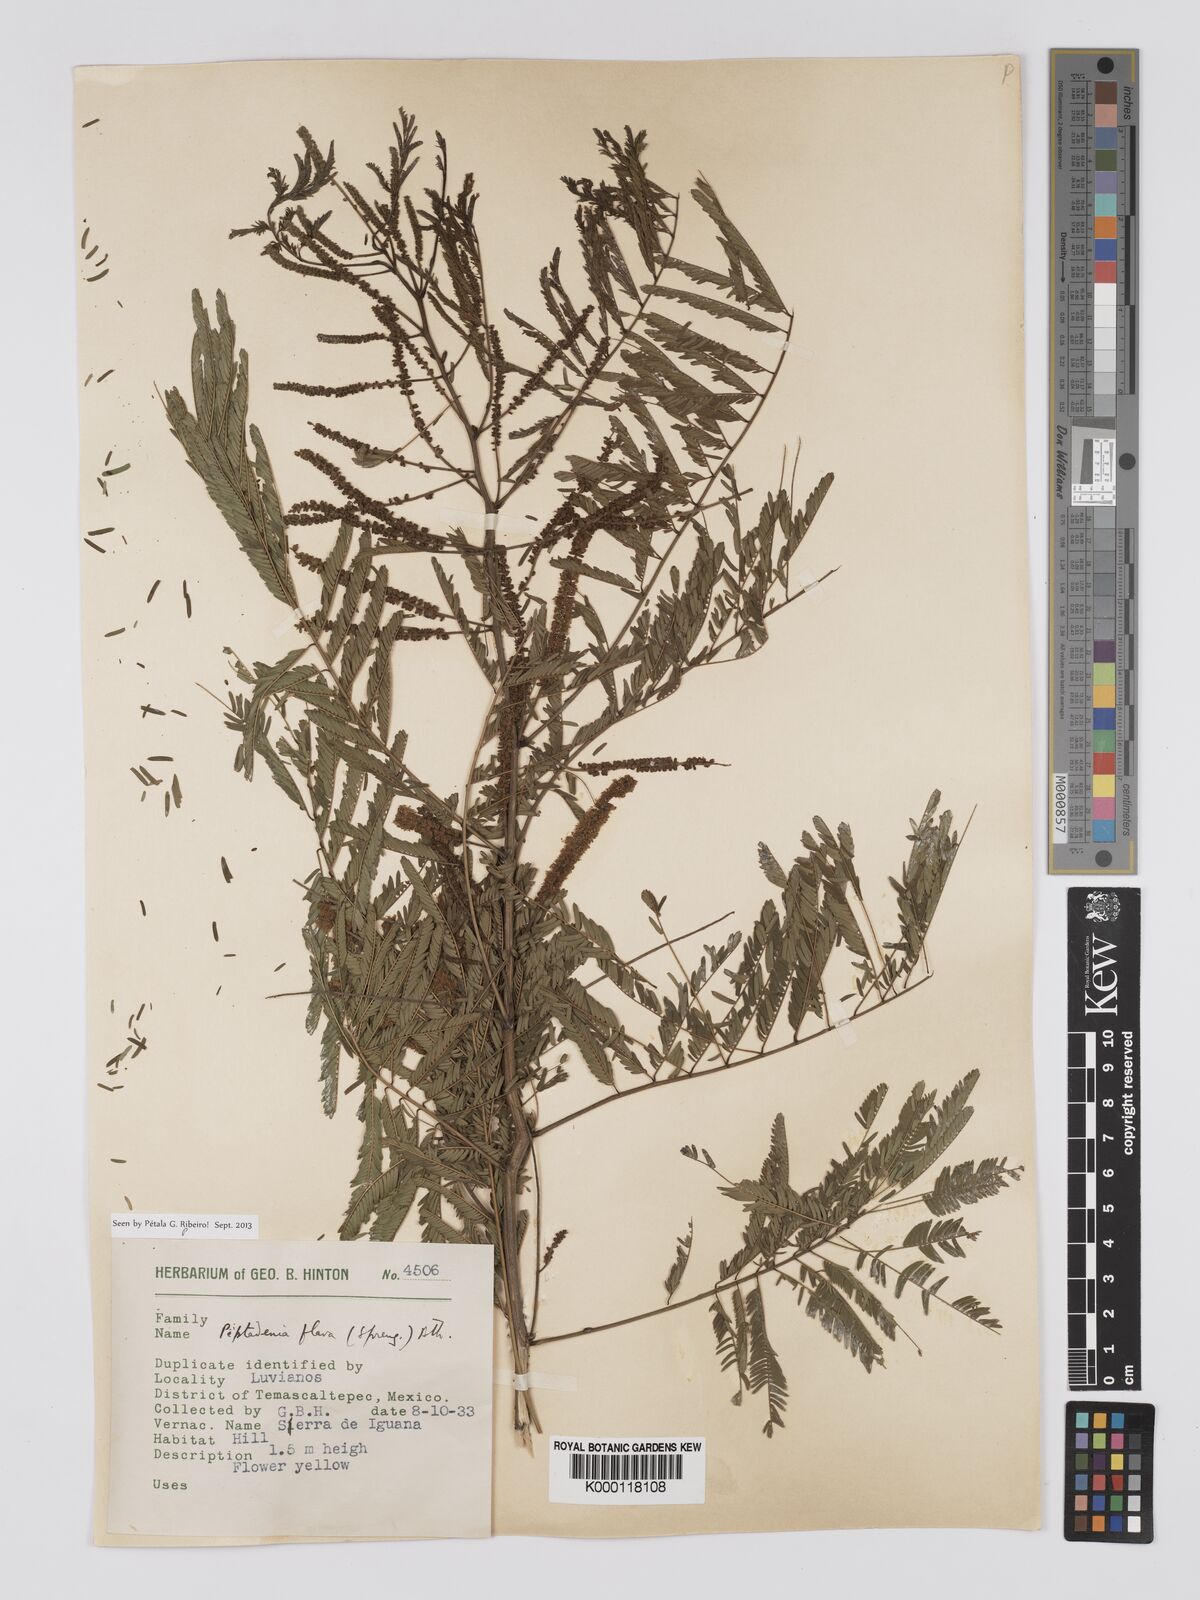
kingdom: Plantae
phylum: Tracheophyta
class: Magnoliopsida
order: Fabales
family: Fabaceae
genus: Piptadenia
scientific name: Piptadenia
